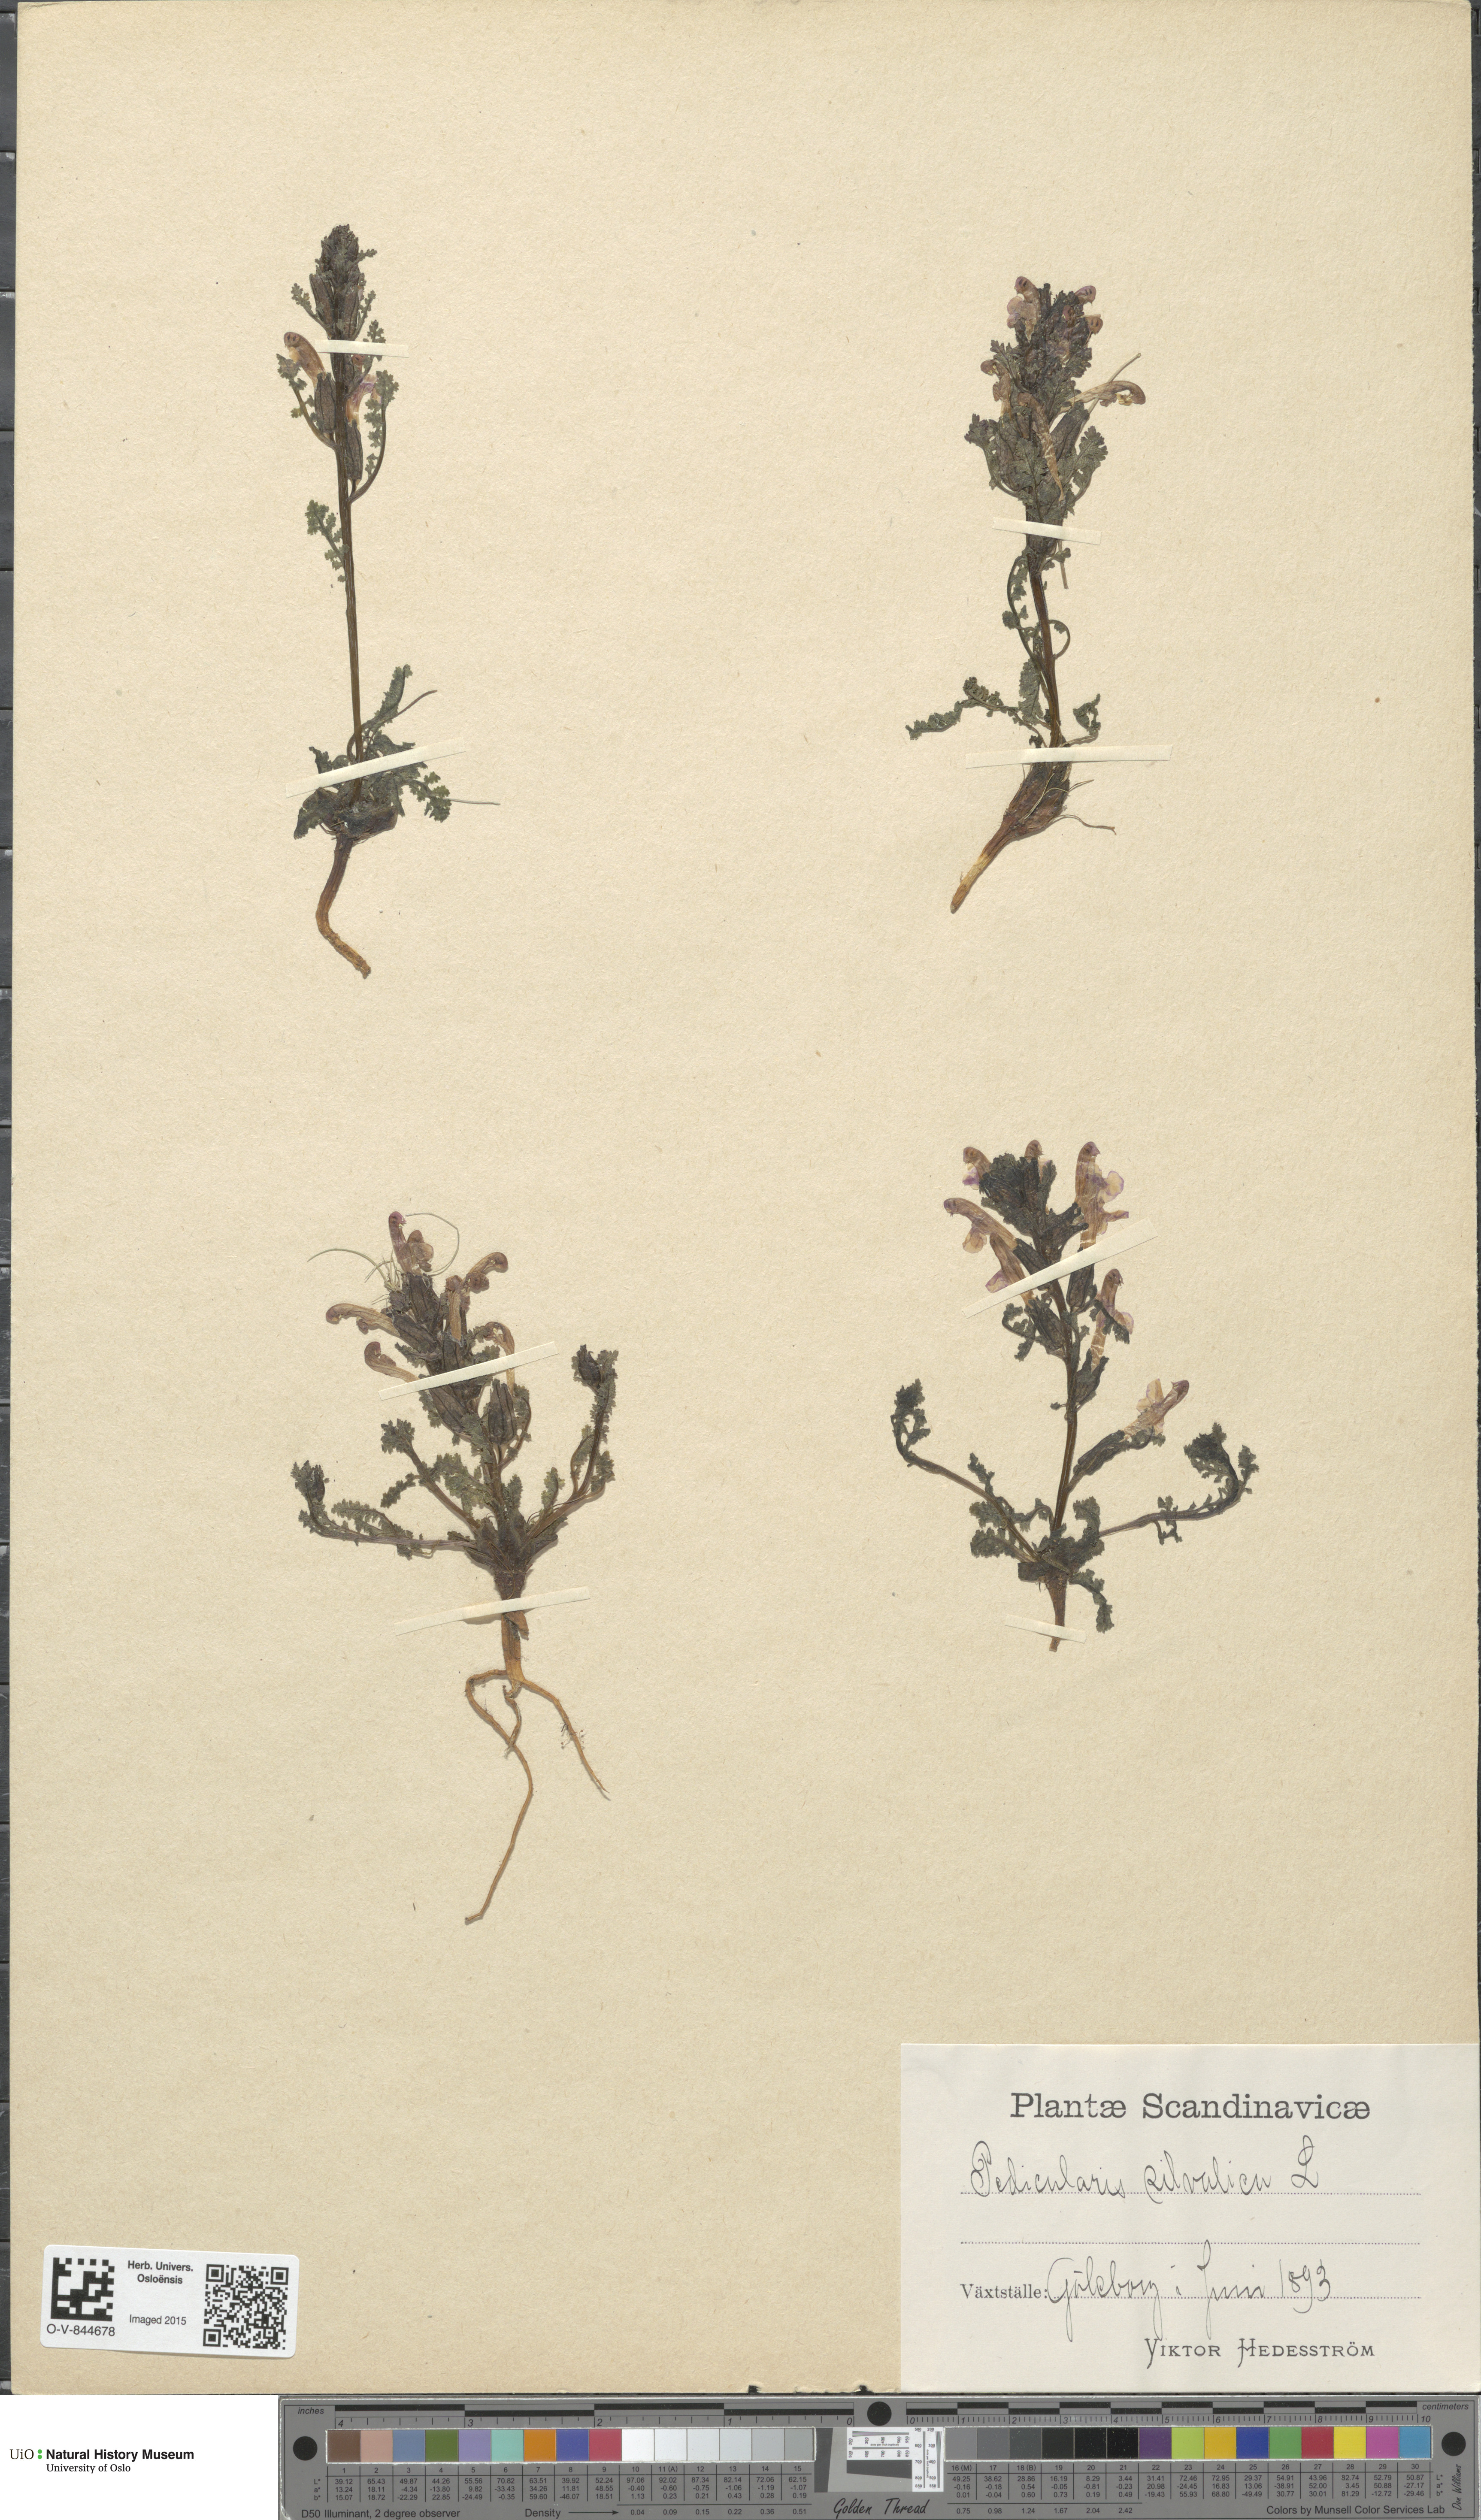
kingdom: Plantae
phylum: Tracheophyta
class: Magnoliopsida
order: Lamiales
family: Orobanchaceae
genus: Pedicularis
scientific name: Pedicularis sylvatica
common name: Lousewort
